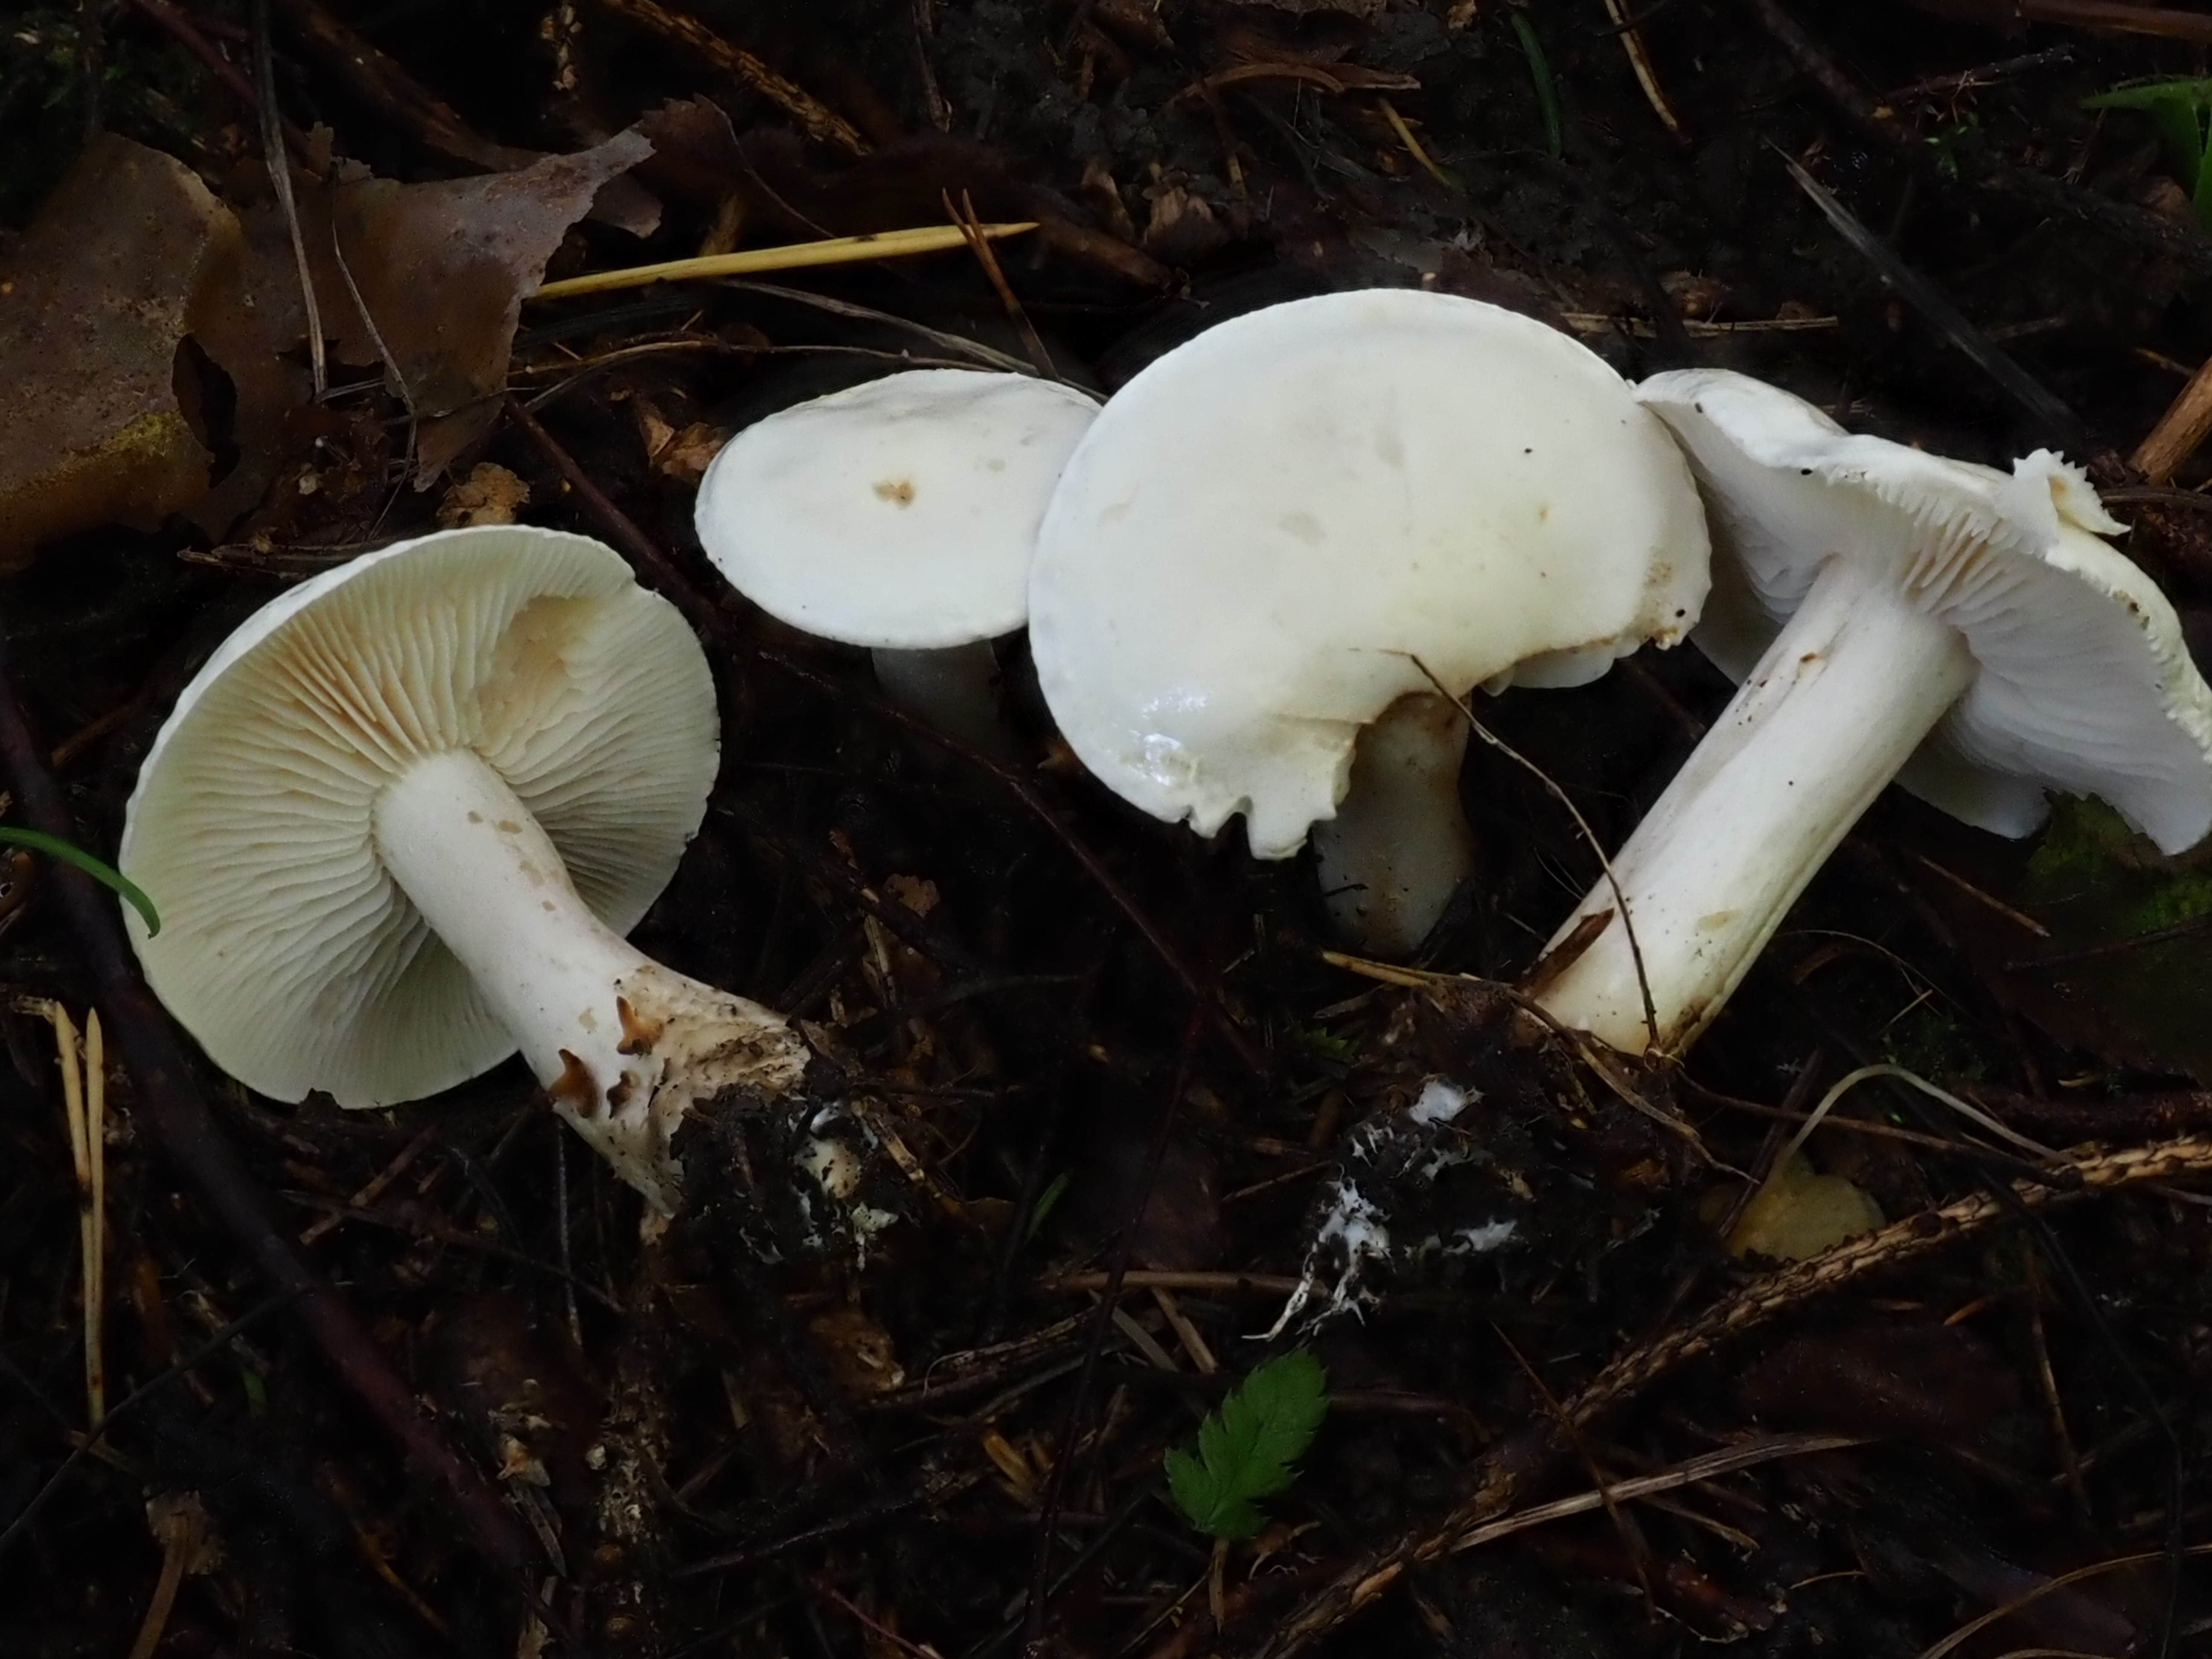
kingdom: Fungi
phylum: Basidiomycota
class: Agaricomycetes
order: Agaricales
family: Tricholomataceae
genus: Tricholoma
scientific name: Tricholoma inamoenum
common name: Gassy knight
